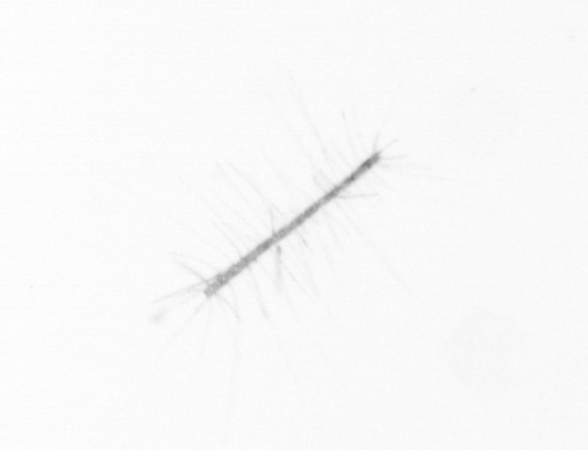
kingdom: Chromista
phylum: Ochrophyta
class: Bacillariophyceae
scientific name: Bacillariophyceae
